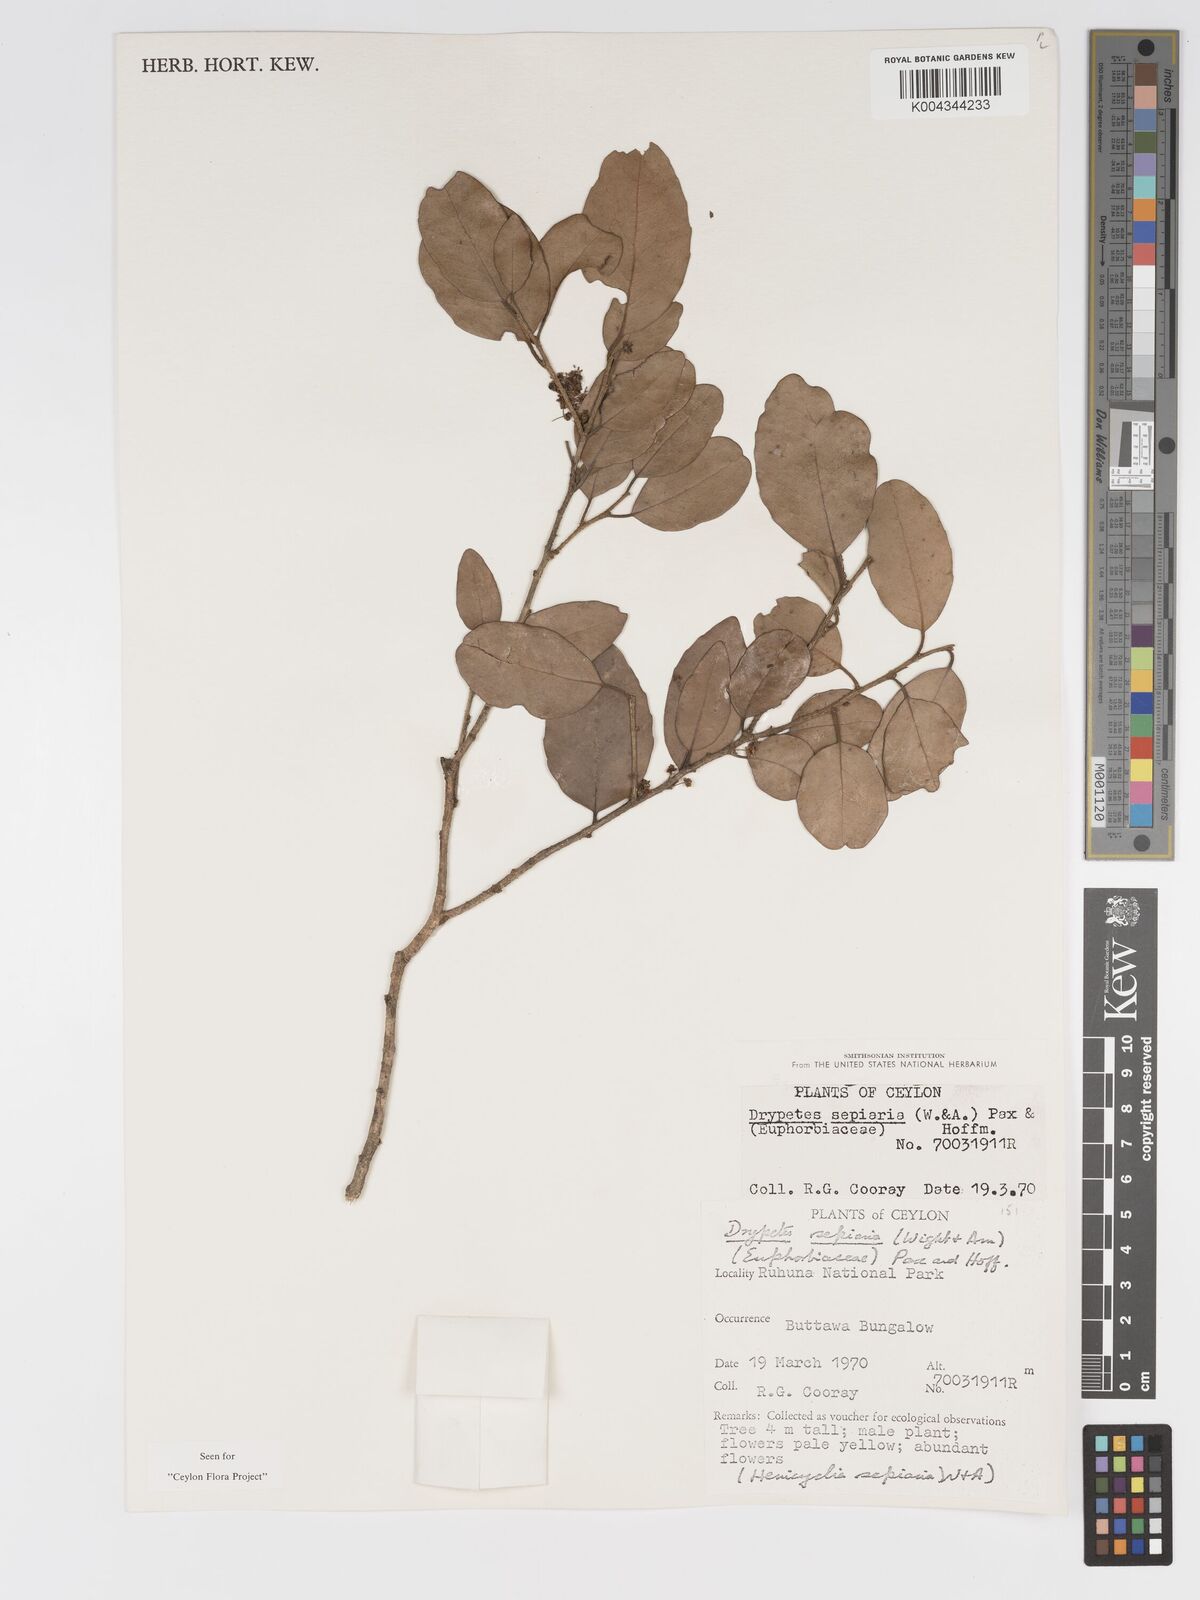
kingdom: Plantae
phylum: Tracheophyta
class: Magnoliopsida
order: Malpighiales
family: Putranjivaceae
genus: Drypetes
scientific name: Drypetes sepiaria
